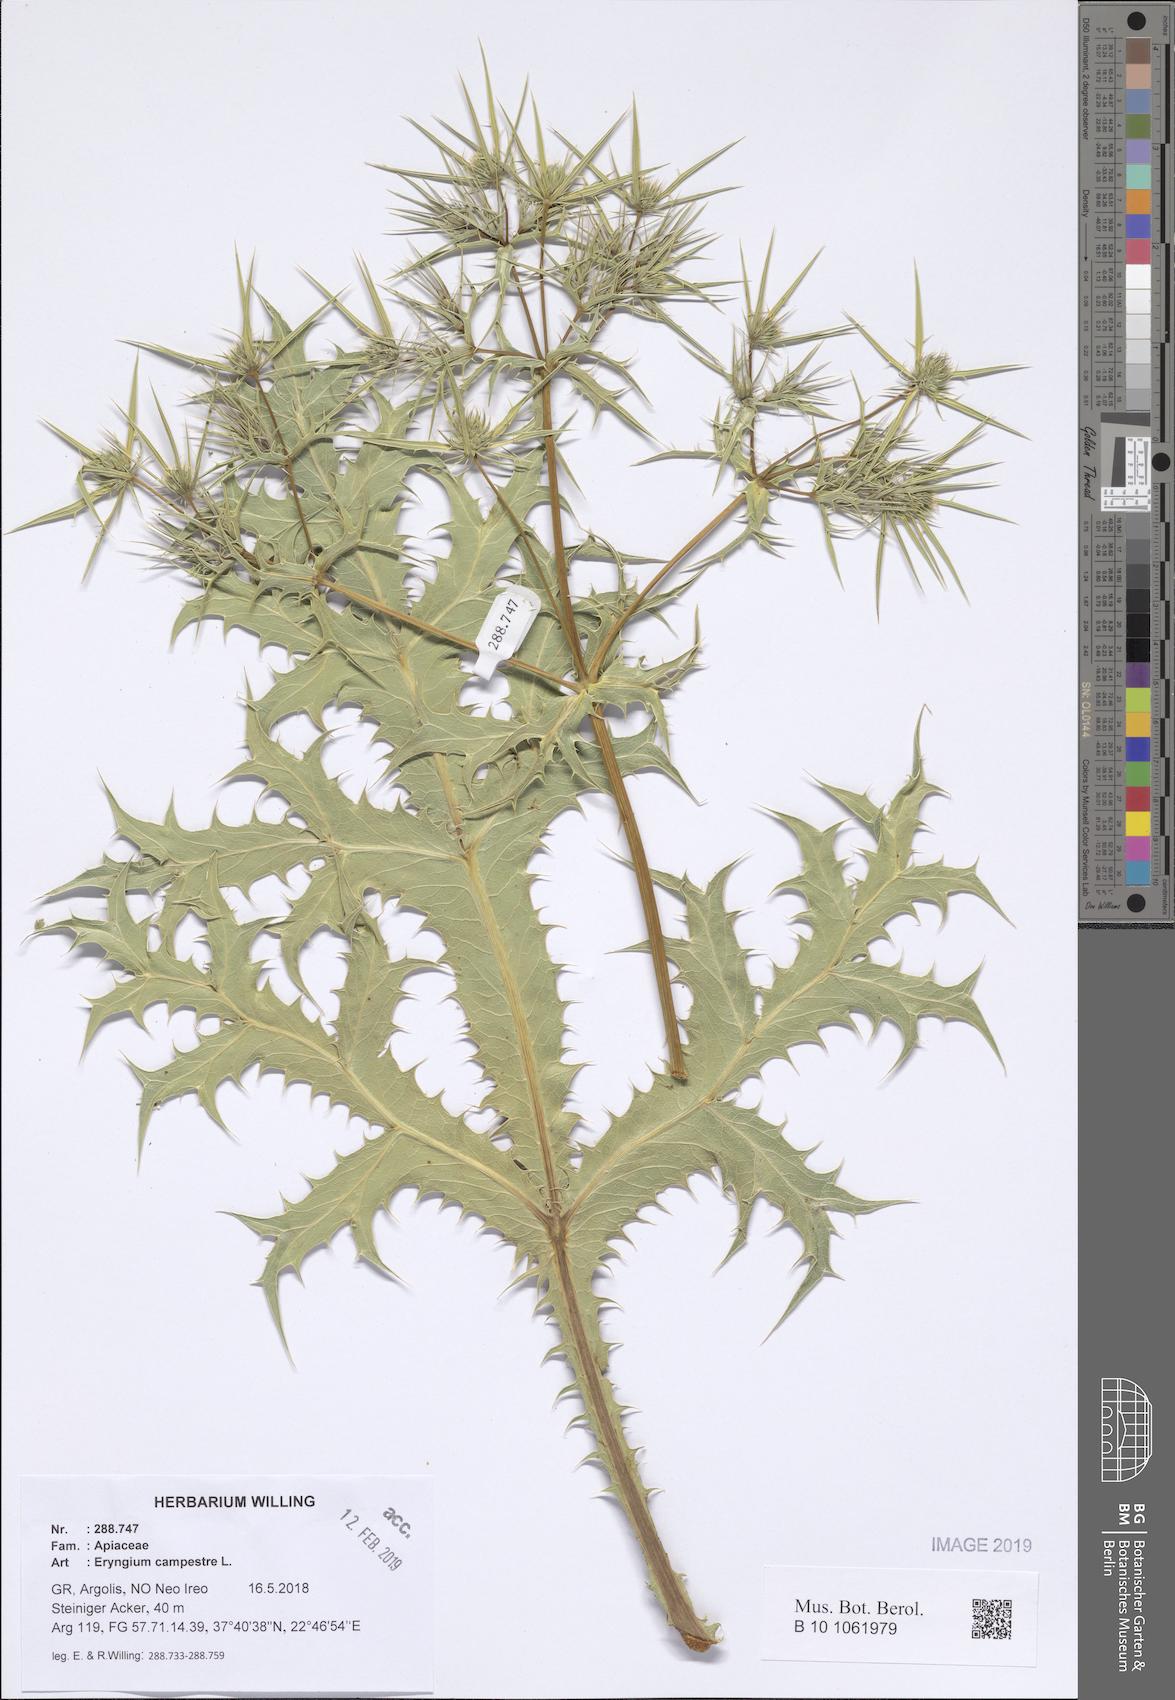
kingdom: Plantae
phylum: Tracheophyta
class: Magnoliopsida
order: Apiales
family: Apiaceae
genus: Eryngium
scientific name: Eryngium campestre
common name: Field eryngo
